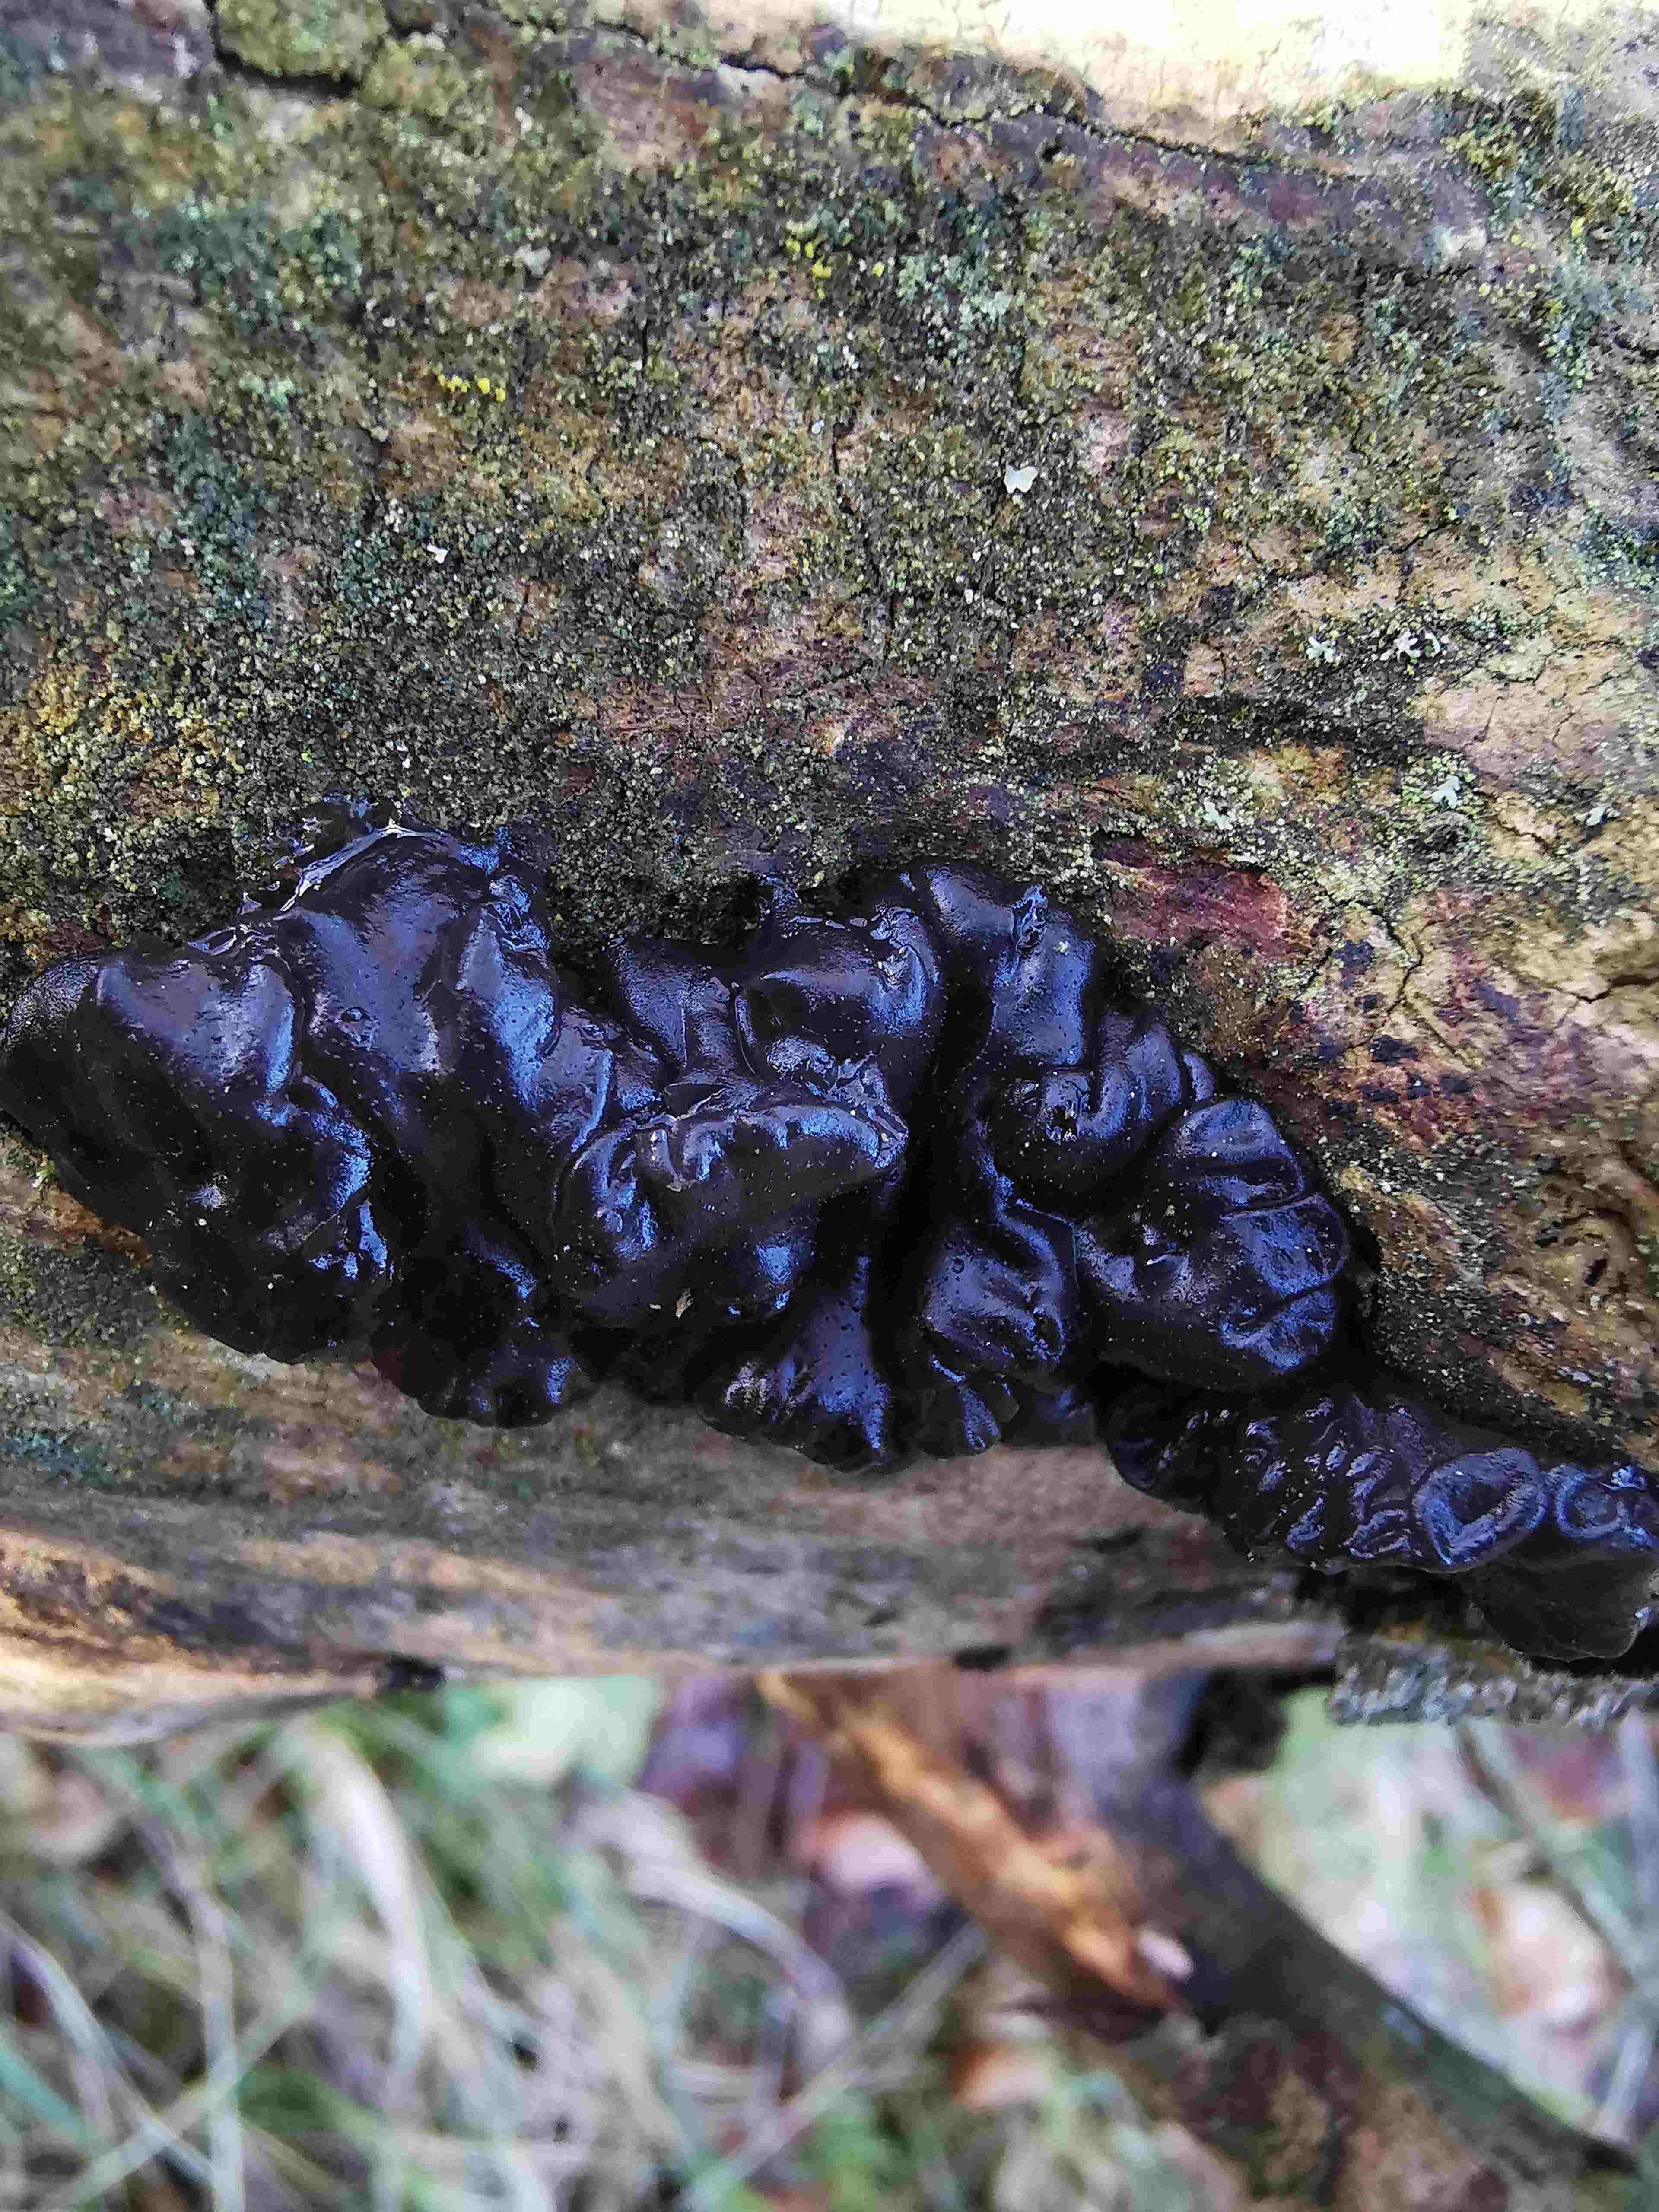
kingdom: Fungi
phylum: Basidiomycota
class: Agaricomycetes
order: Auriculariales
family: Auriculariaceae
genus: Exidia
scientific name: Exidia nigricans
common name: almindelig bævretop
